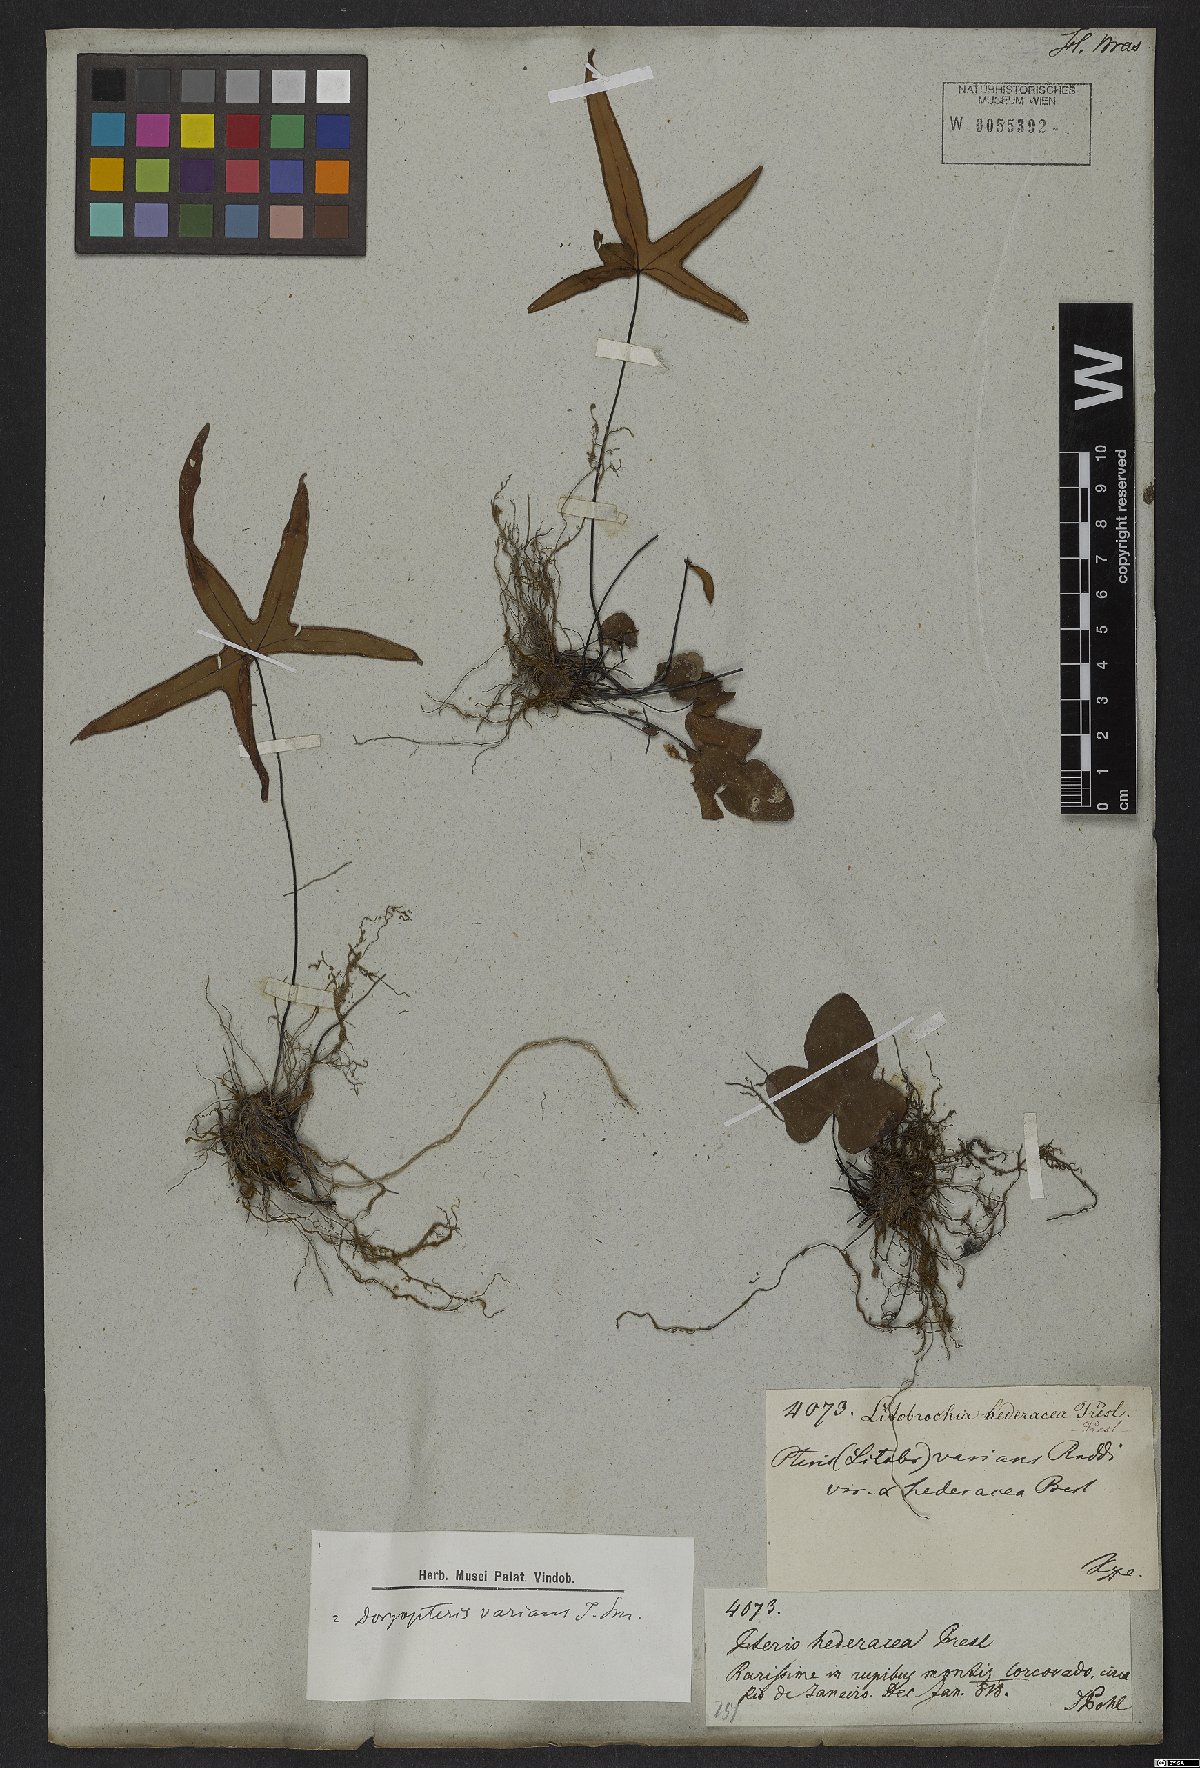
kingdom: Plantae
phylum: Tracheophyta
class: Polypodiopsida
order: Polypodiales
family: Pteridaceae
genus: Doryopteris
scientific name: Doryopteris varians
